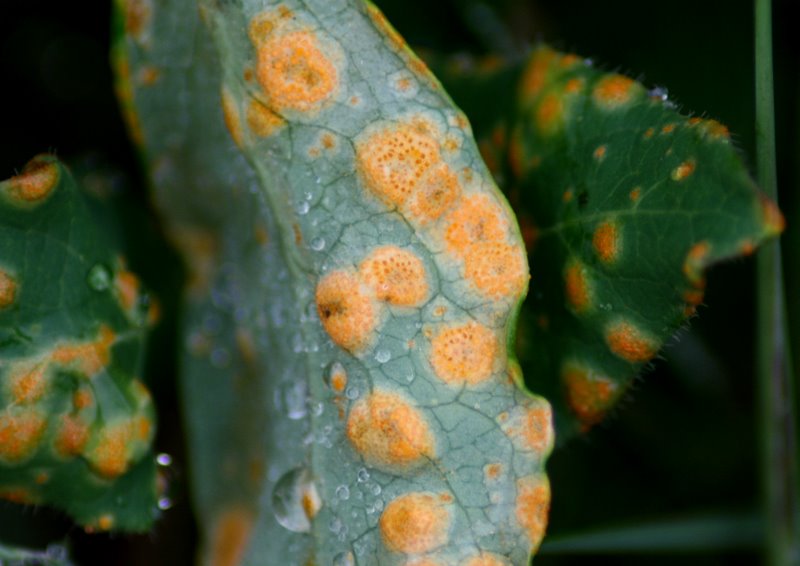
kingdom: Fungi
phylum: Basidiomycota
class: Pucciniomycetes
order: Pucciniales
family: Pucciniaceae
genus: Puccinia
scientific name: Puccinia festucae
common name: gedeblad-tvecellerust
